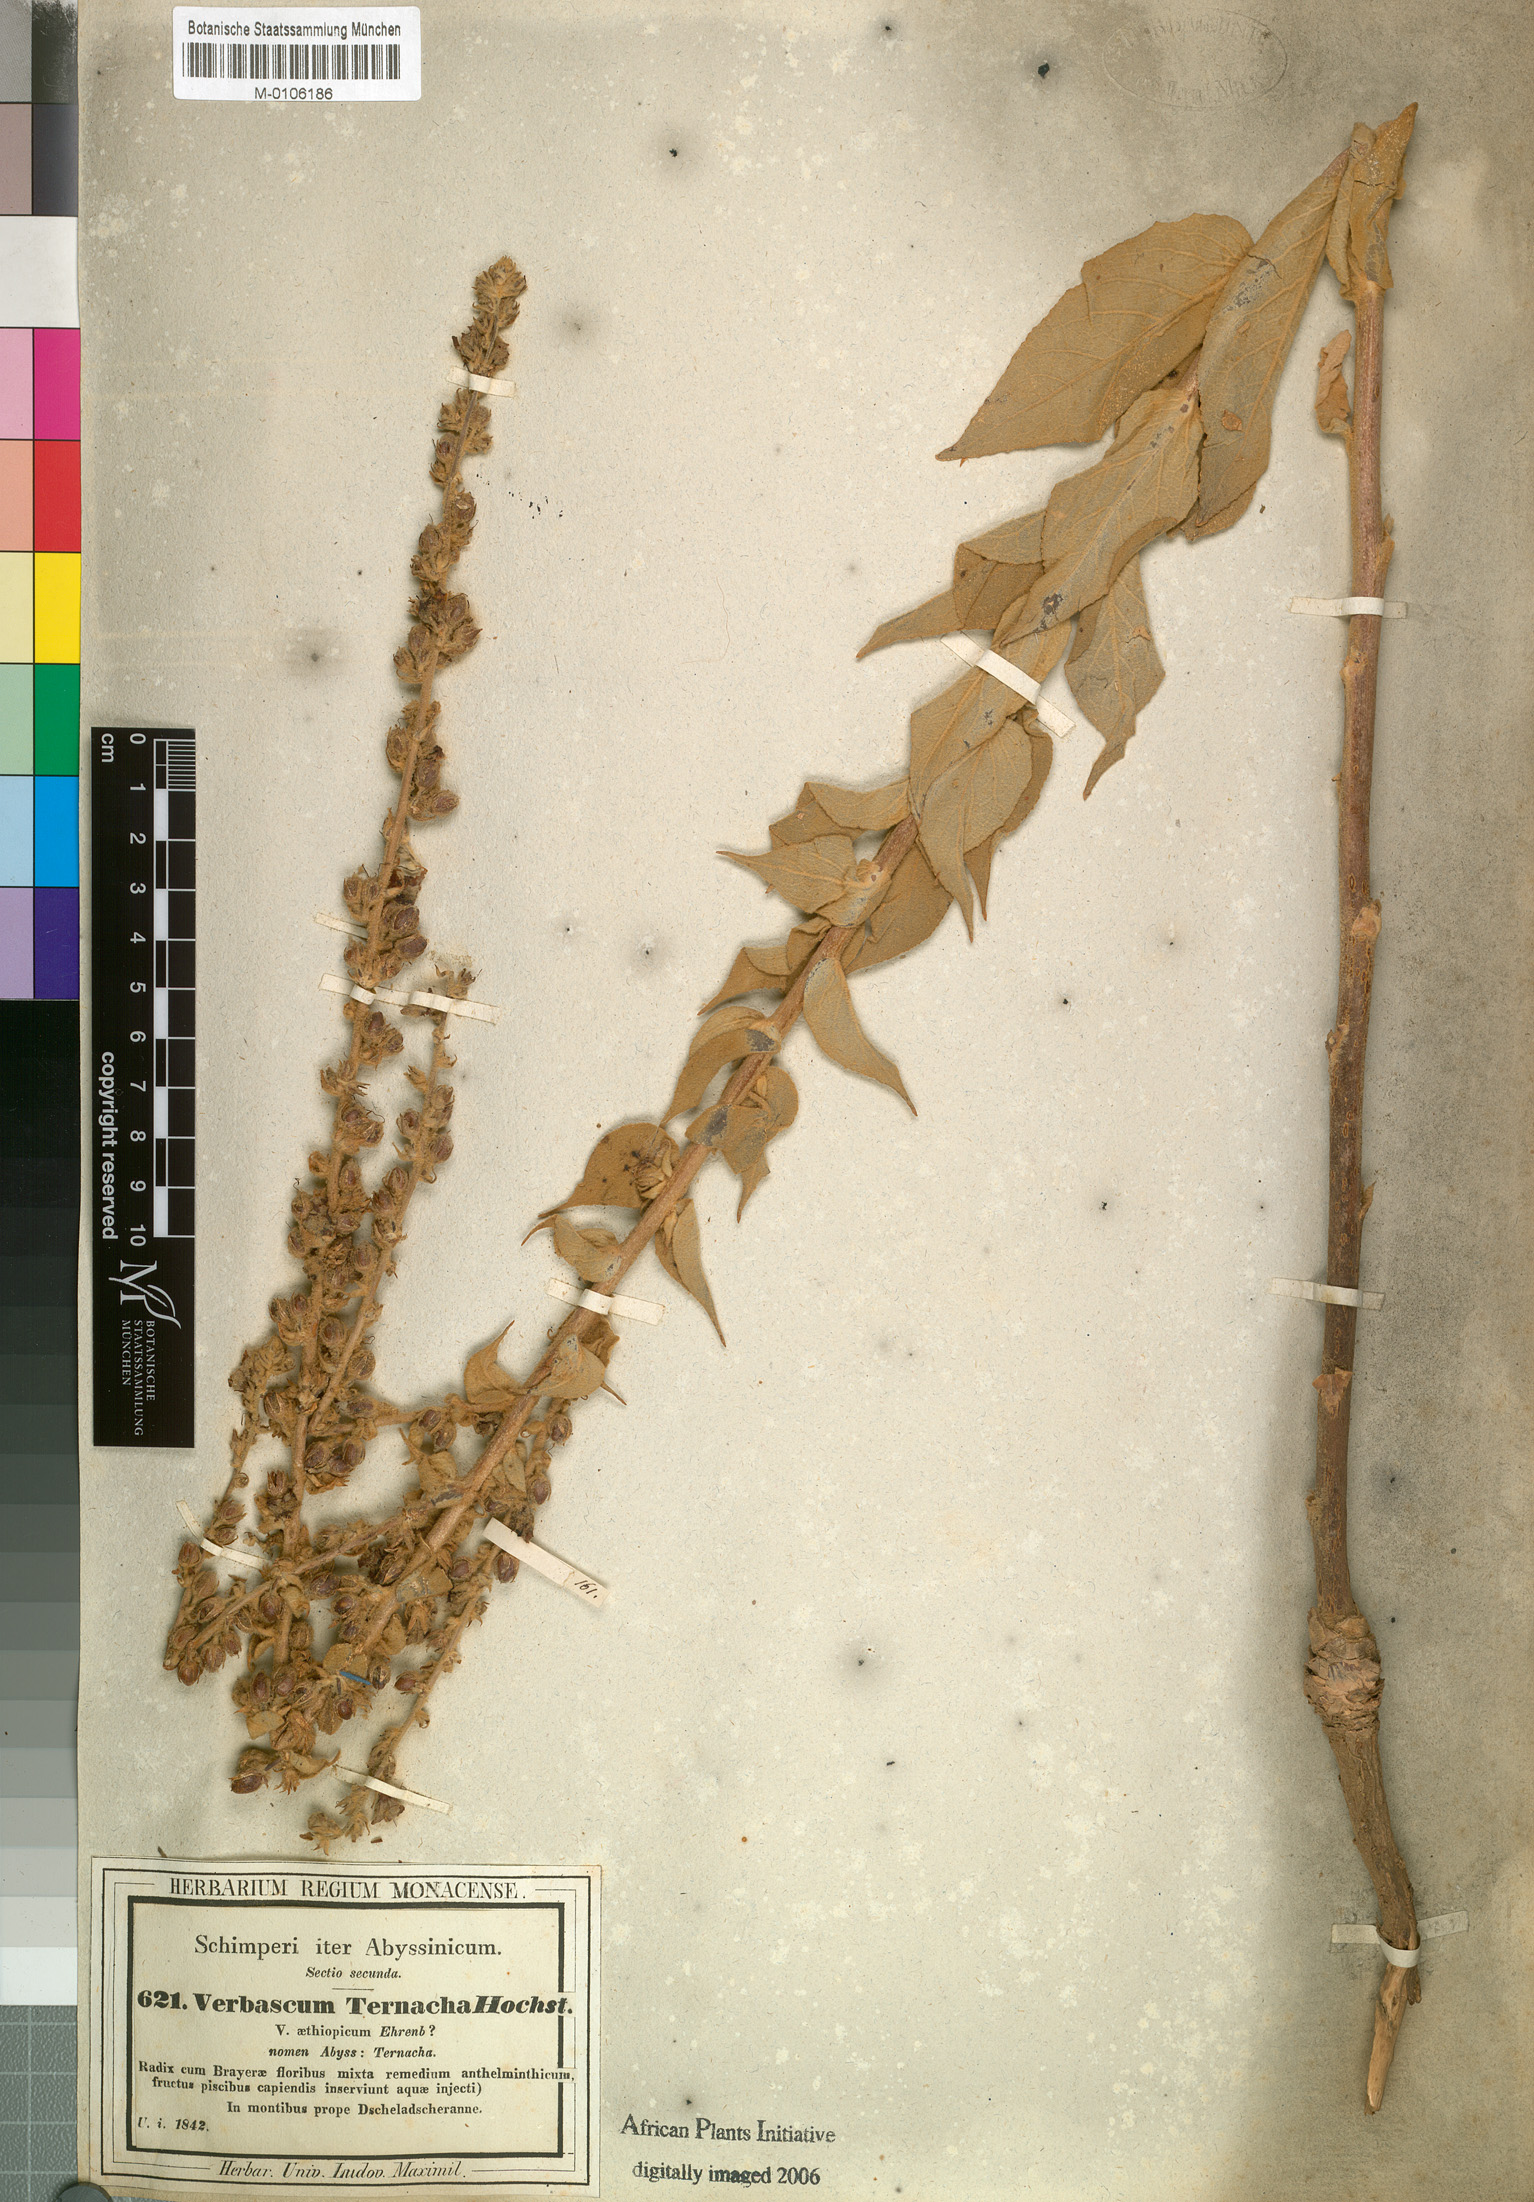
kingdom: Plantae
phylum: Tracheophyta
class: Magnoliopsida
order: Lamiales
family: Scrophulariaceae
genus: Verbascum
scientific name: Verbascum sinaiticum
